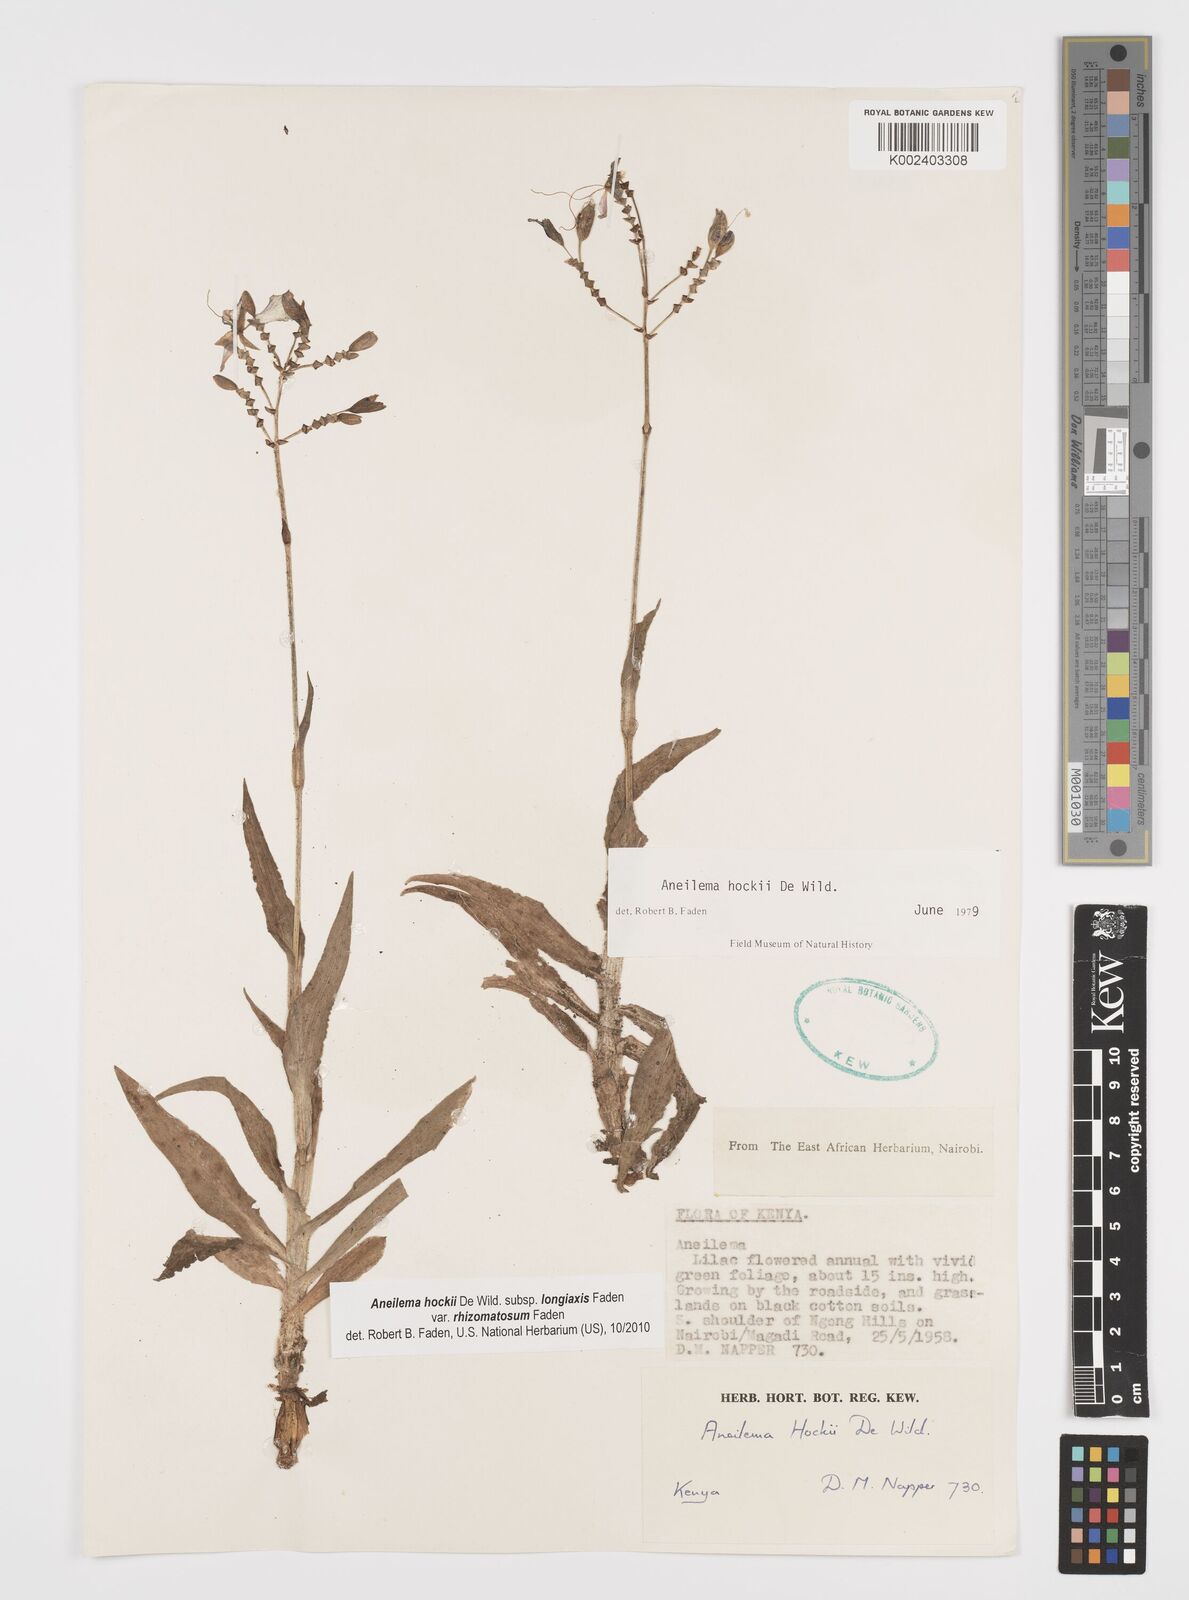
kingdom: Plantae
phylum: Tracheophyta
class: Liliopsida
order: Commelinales
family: Commelinaceae
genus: Aneilema
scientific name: Aneilema hockii
